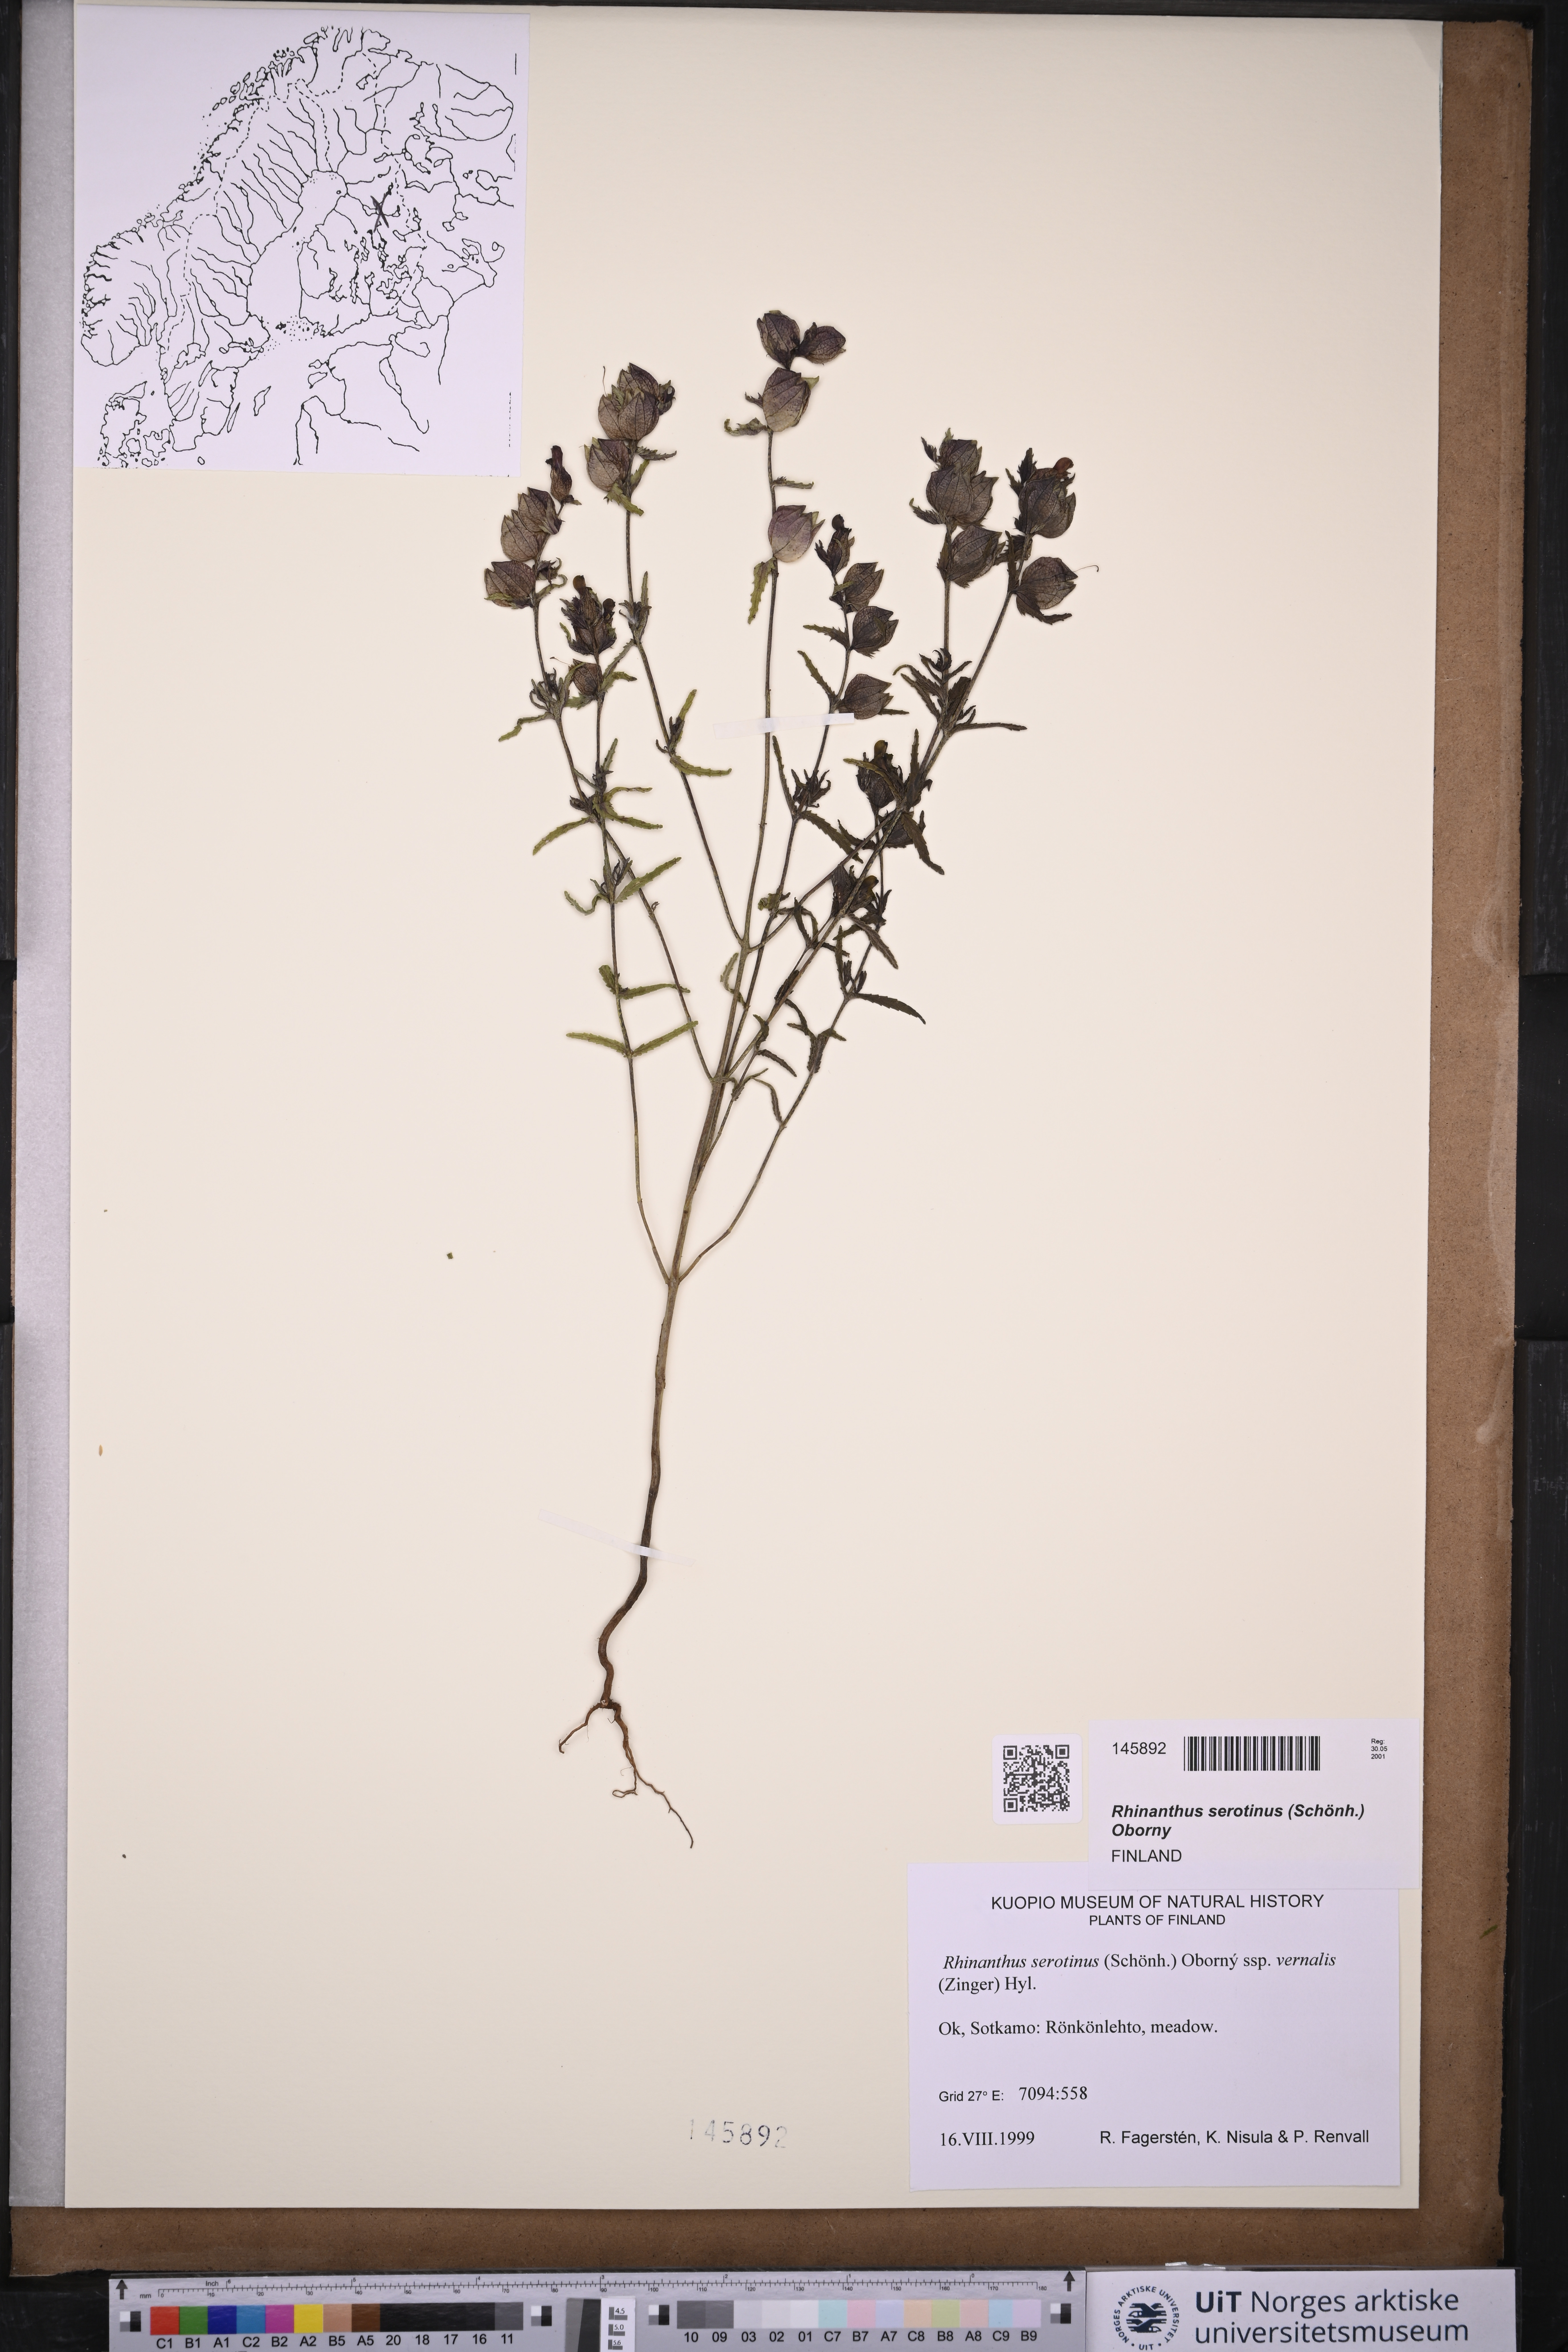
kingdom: Plantae
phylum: Tracheophyta
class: Magnoliopsida
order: Lamiales
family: Orobanchaceae
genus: Rhinanthus
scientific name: Rhinanthus
